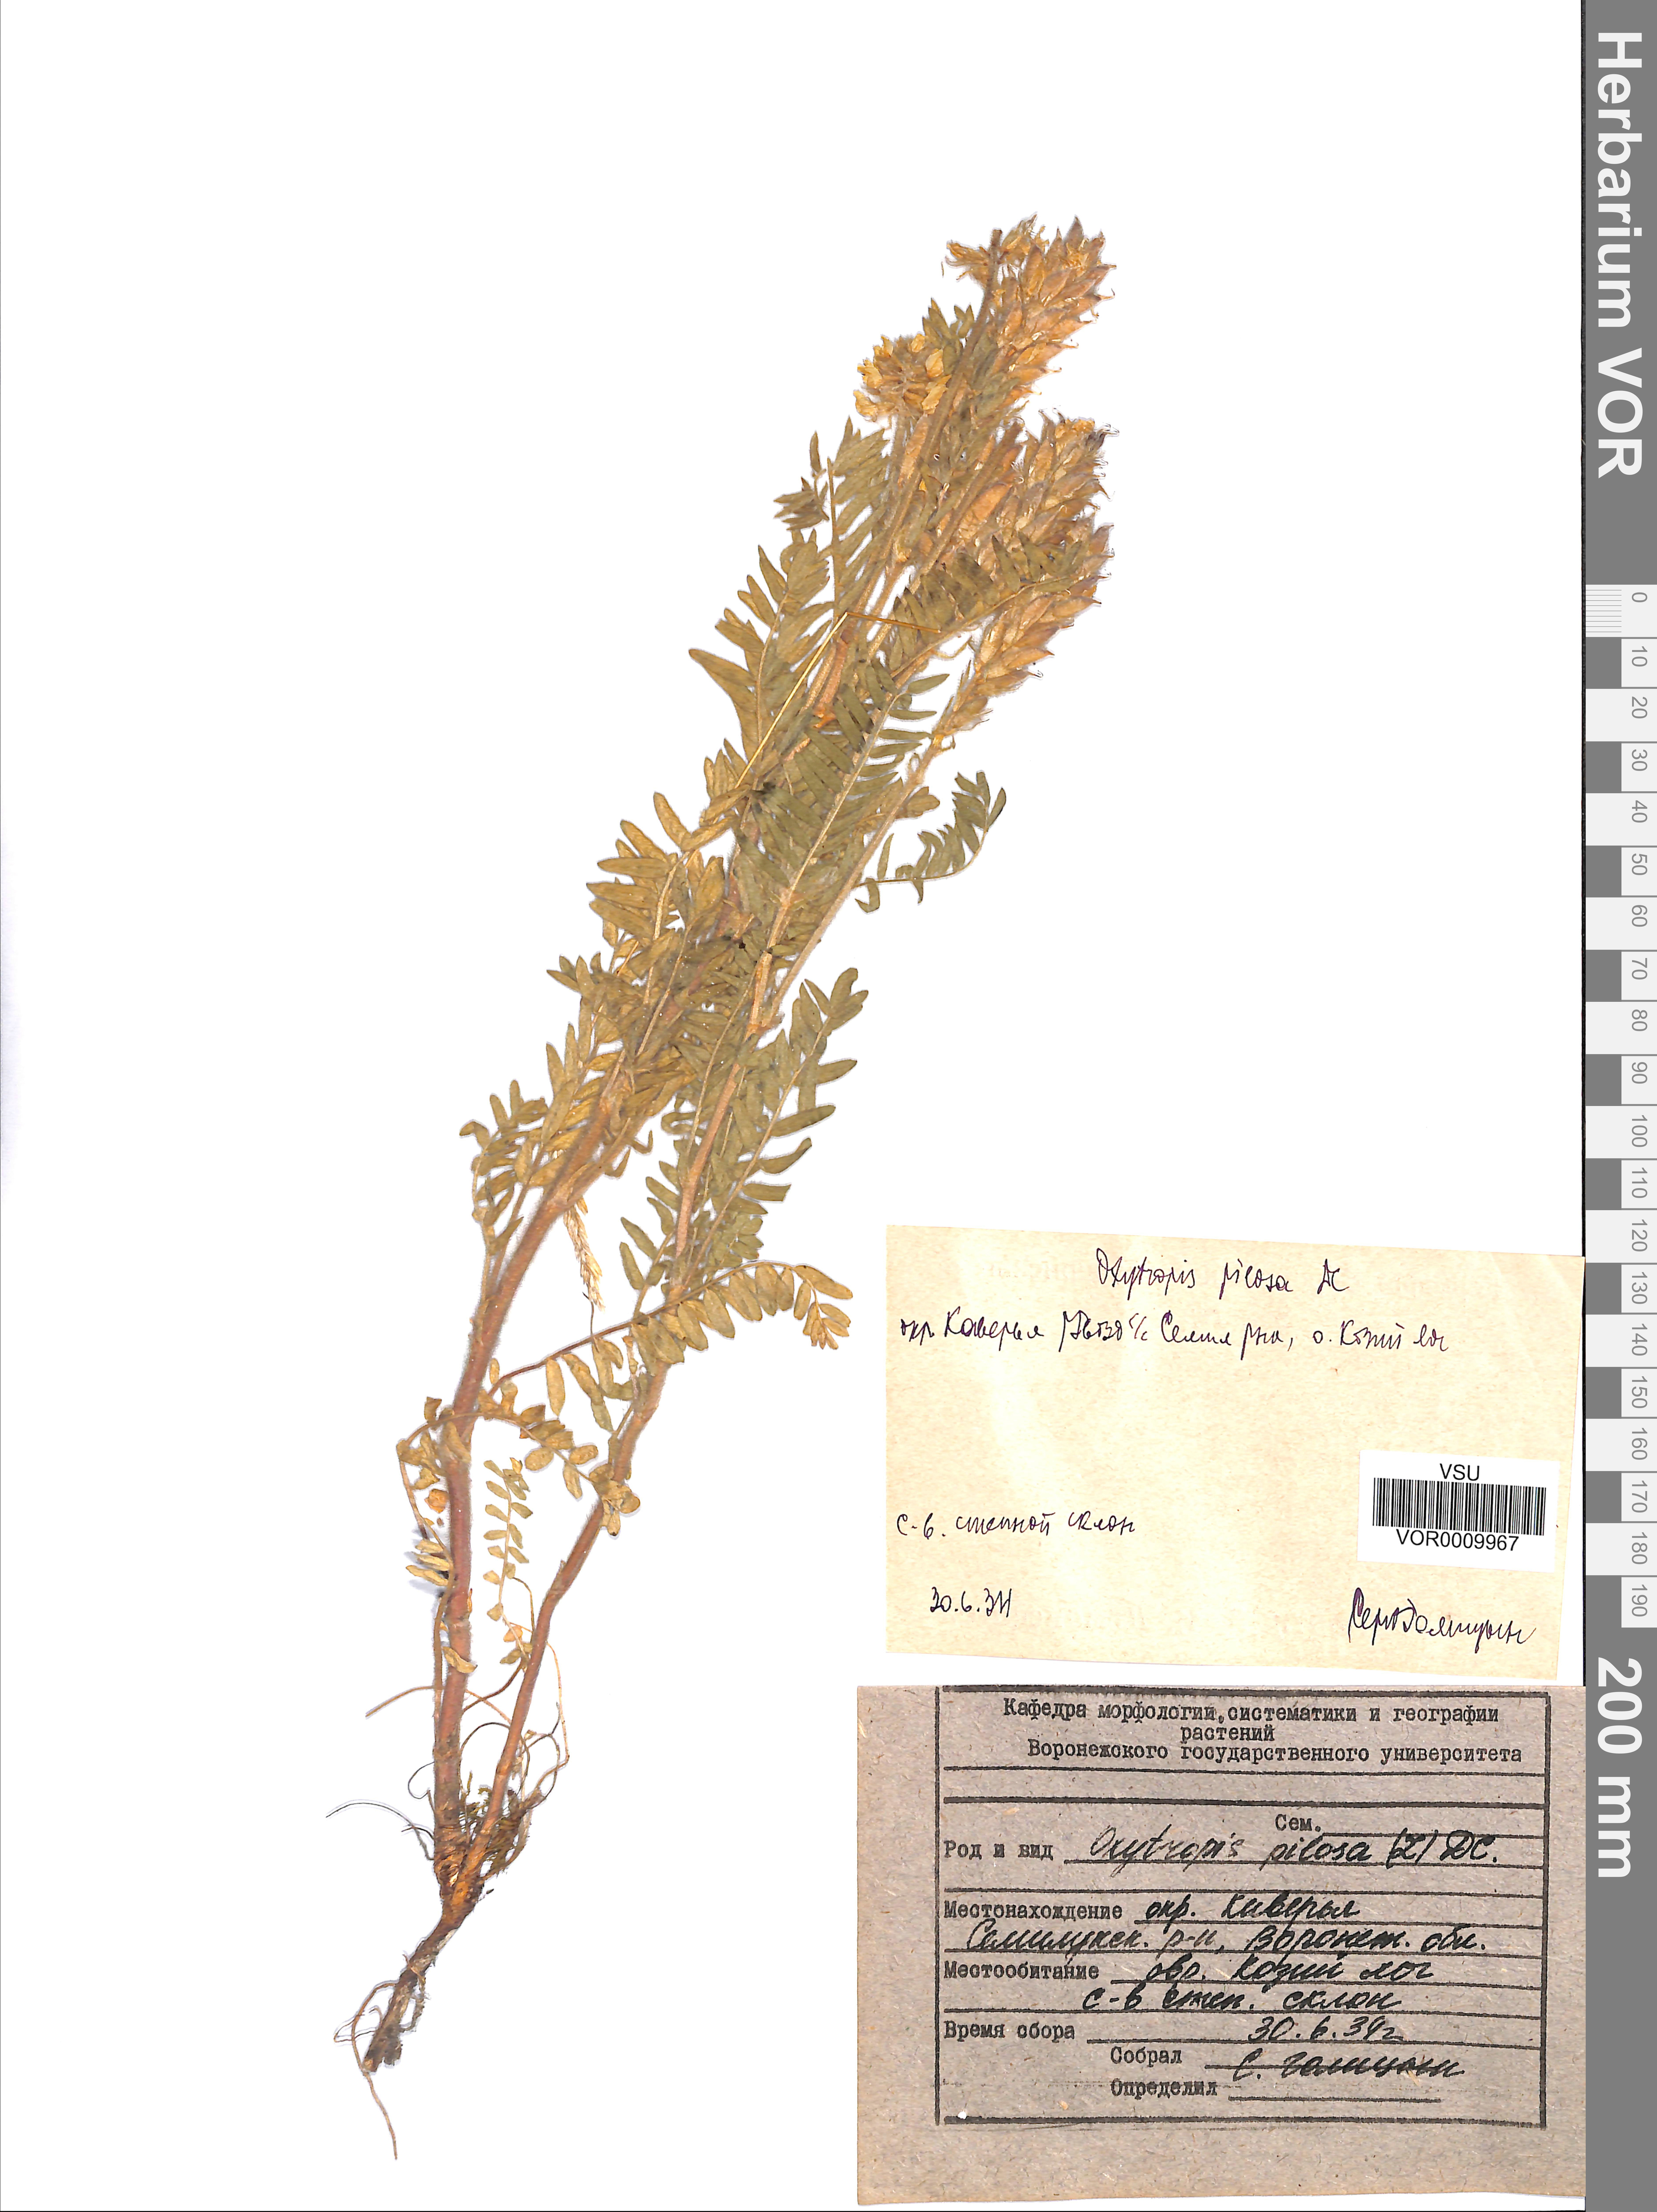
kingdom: Plantae
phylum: Tracheophyta
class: Magnoliopsida
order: Fabales
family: Fabaceae
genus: Oxytropis
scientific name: Oxytropis pilosa
